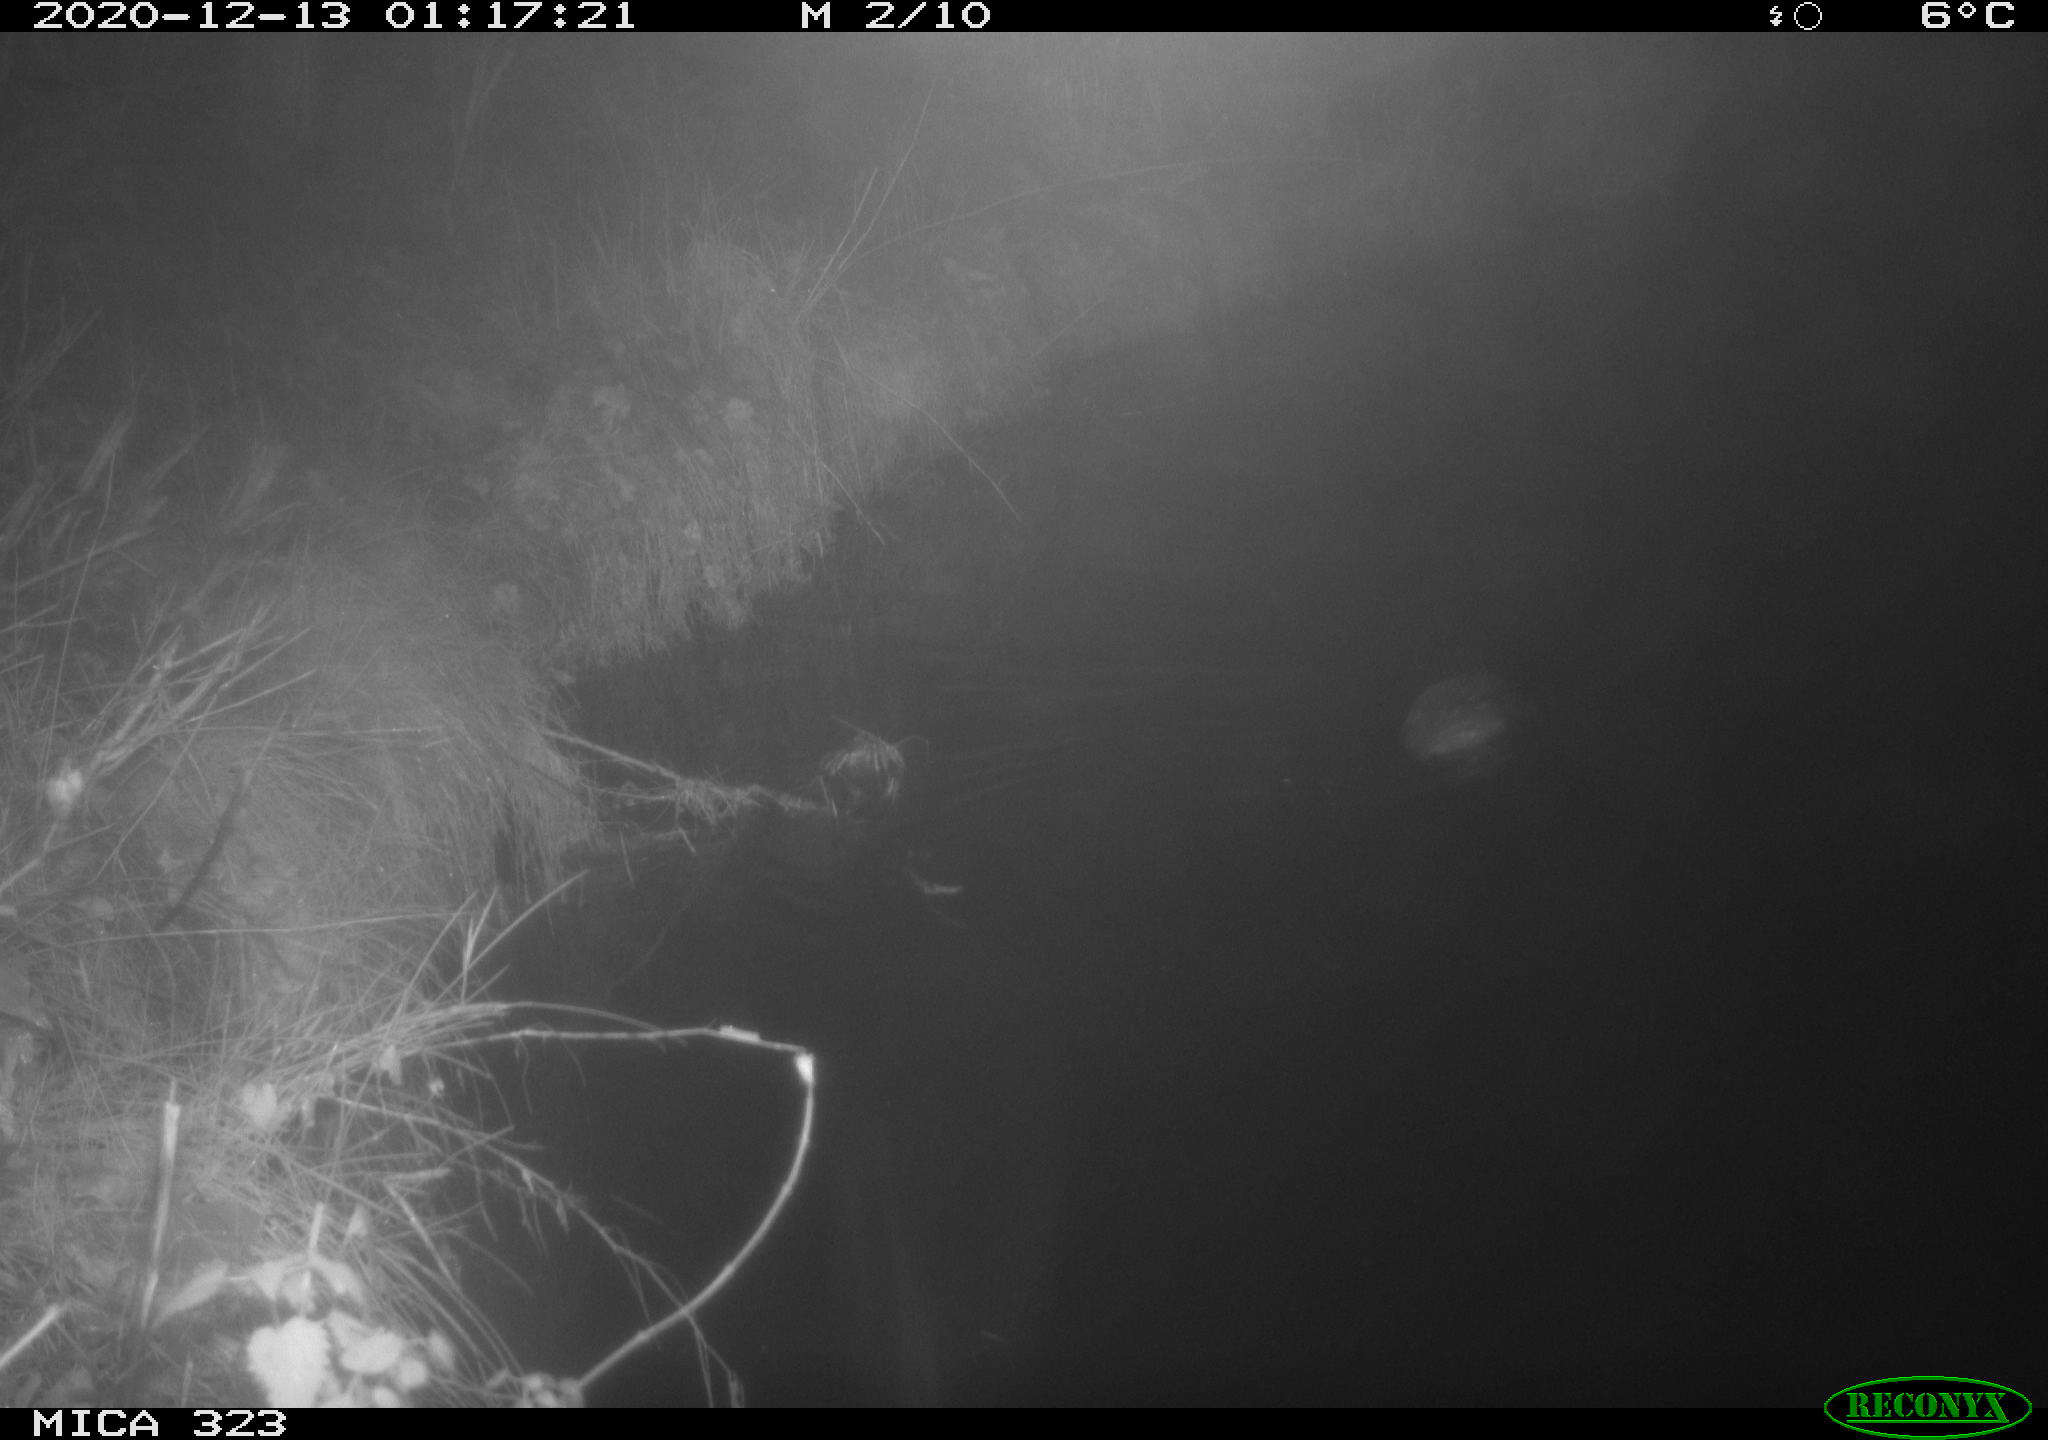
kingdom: Animalia
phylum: Chordata
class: Mammalia
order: Rodentia
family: Myocastoridae
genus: Myocastor
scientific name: Myocastor coypus
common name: Coypu
